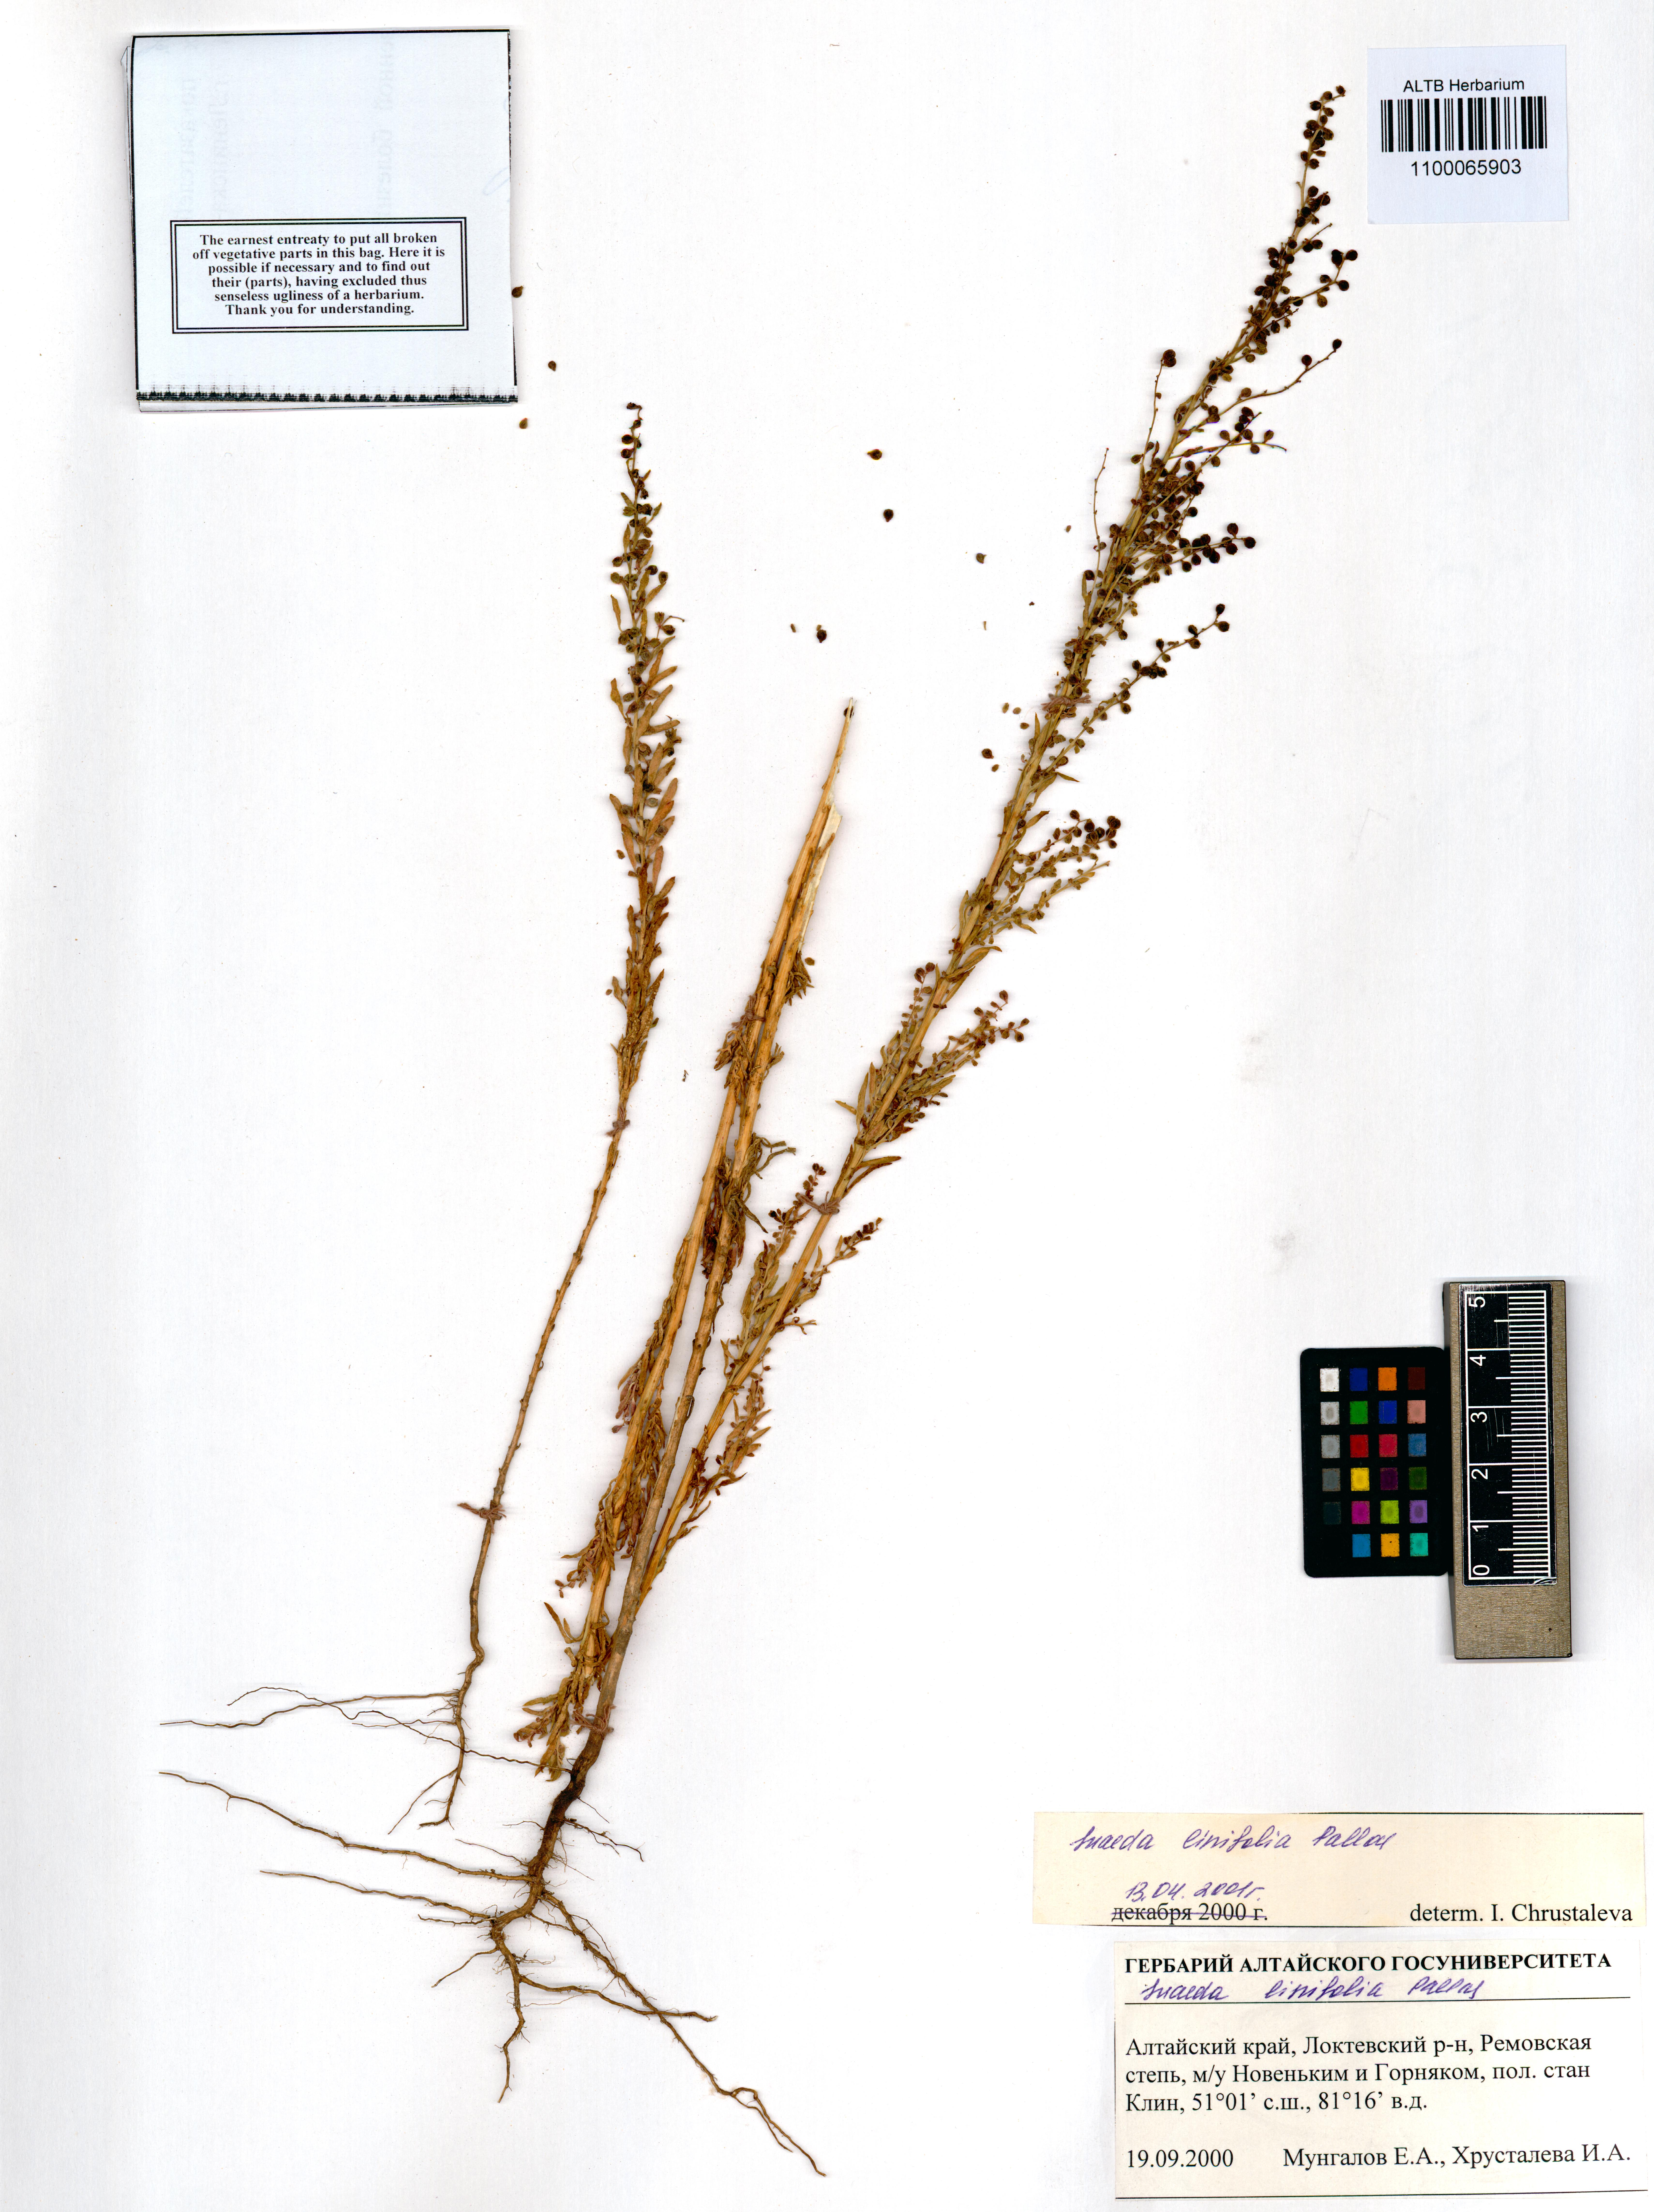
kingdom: Plantae
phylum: Tracheophyta
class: Magnoliopsida
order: Caryophyllales
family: Amaranthaceae
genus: Suaeda
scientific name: Suaeda linifolia
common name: Pin-leaf seepweed
